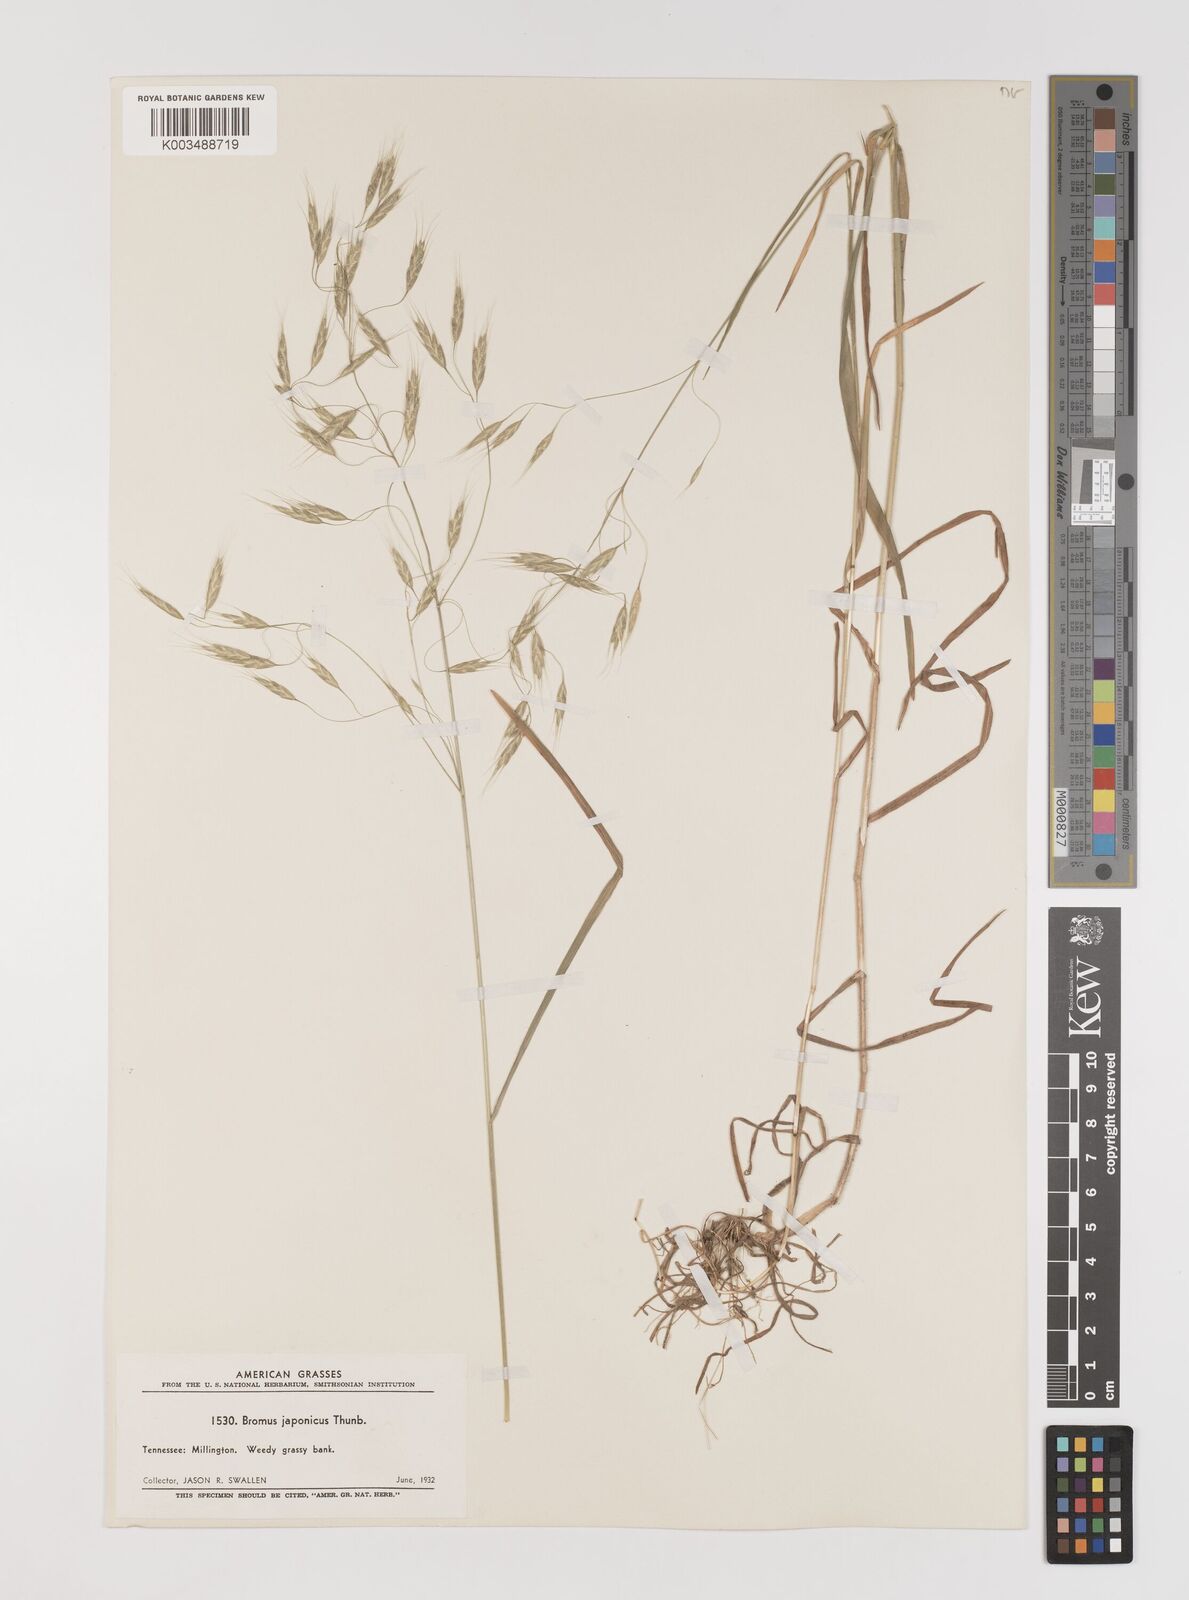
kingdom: Plantae
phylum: Tracheophyta
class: Liliopsida
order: Poales
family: Poaceae
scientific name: Poaceae
